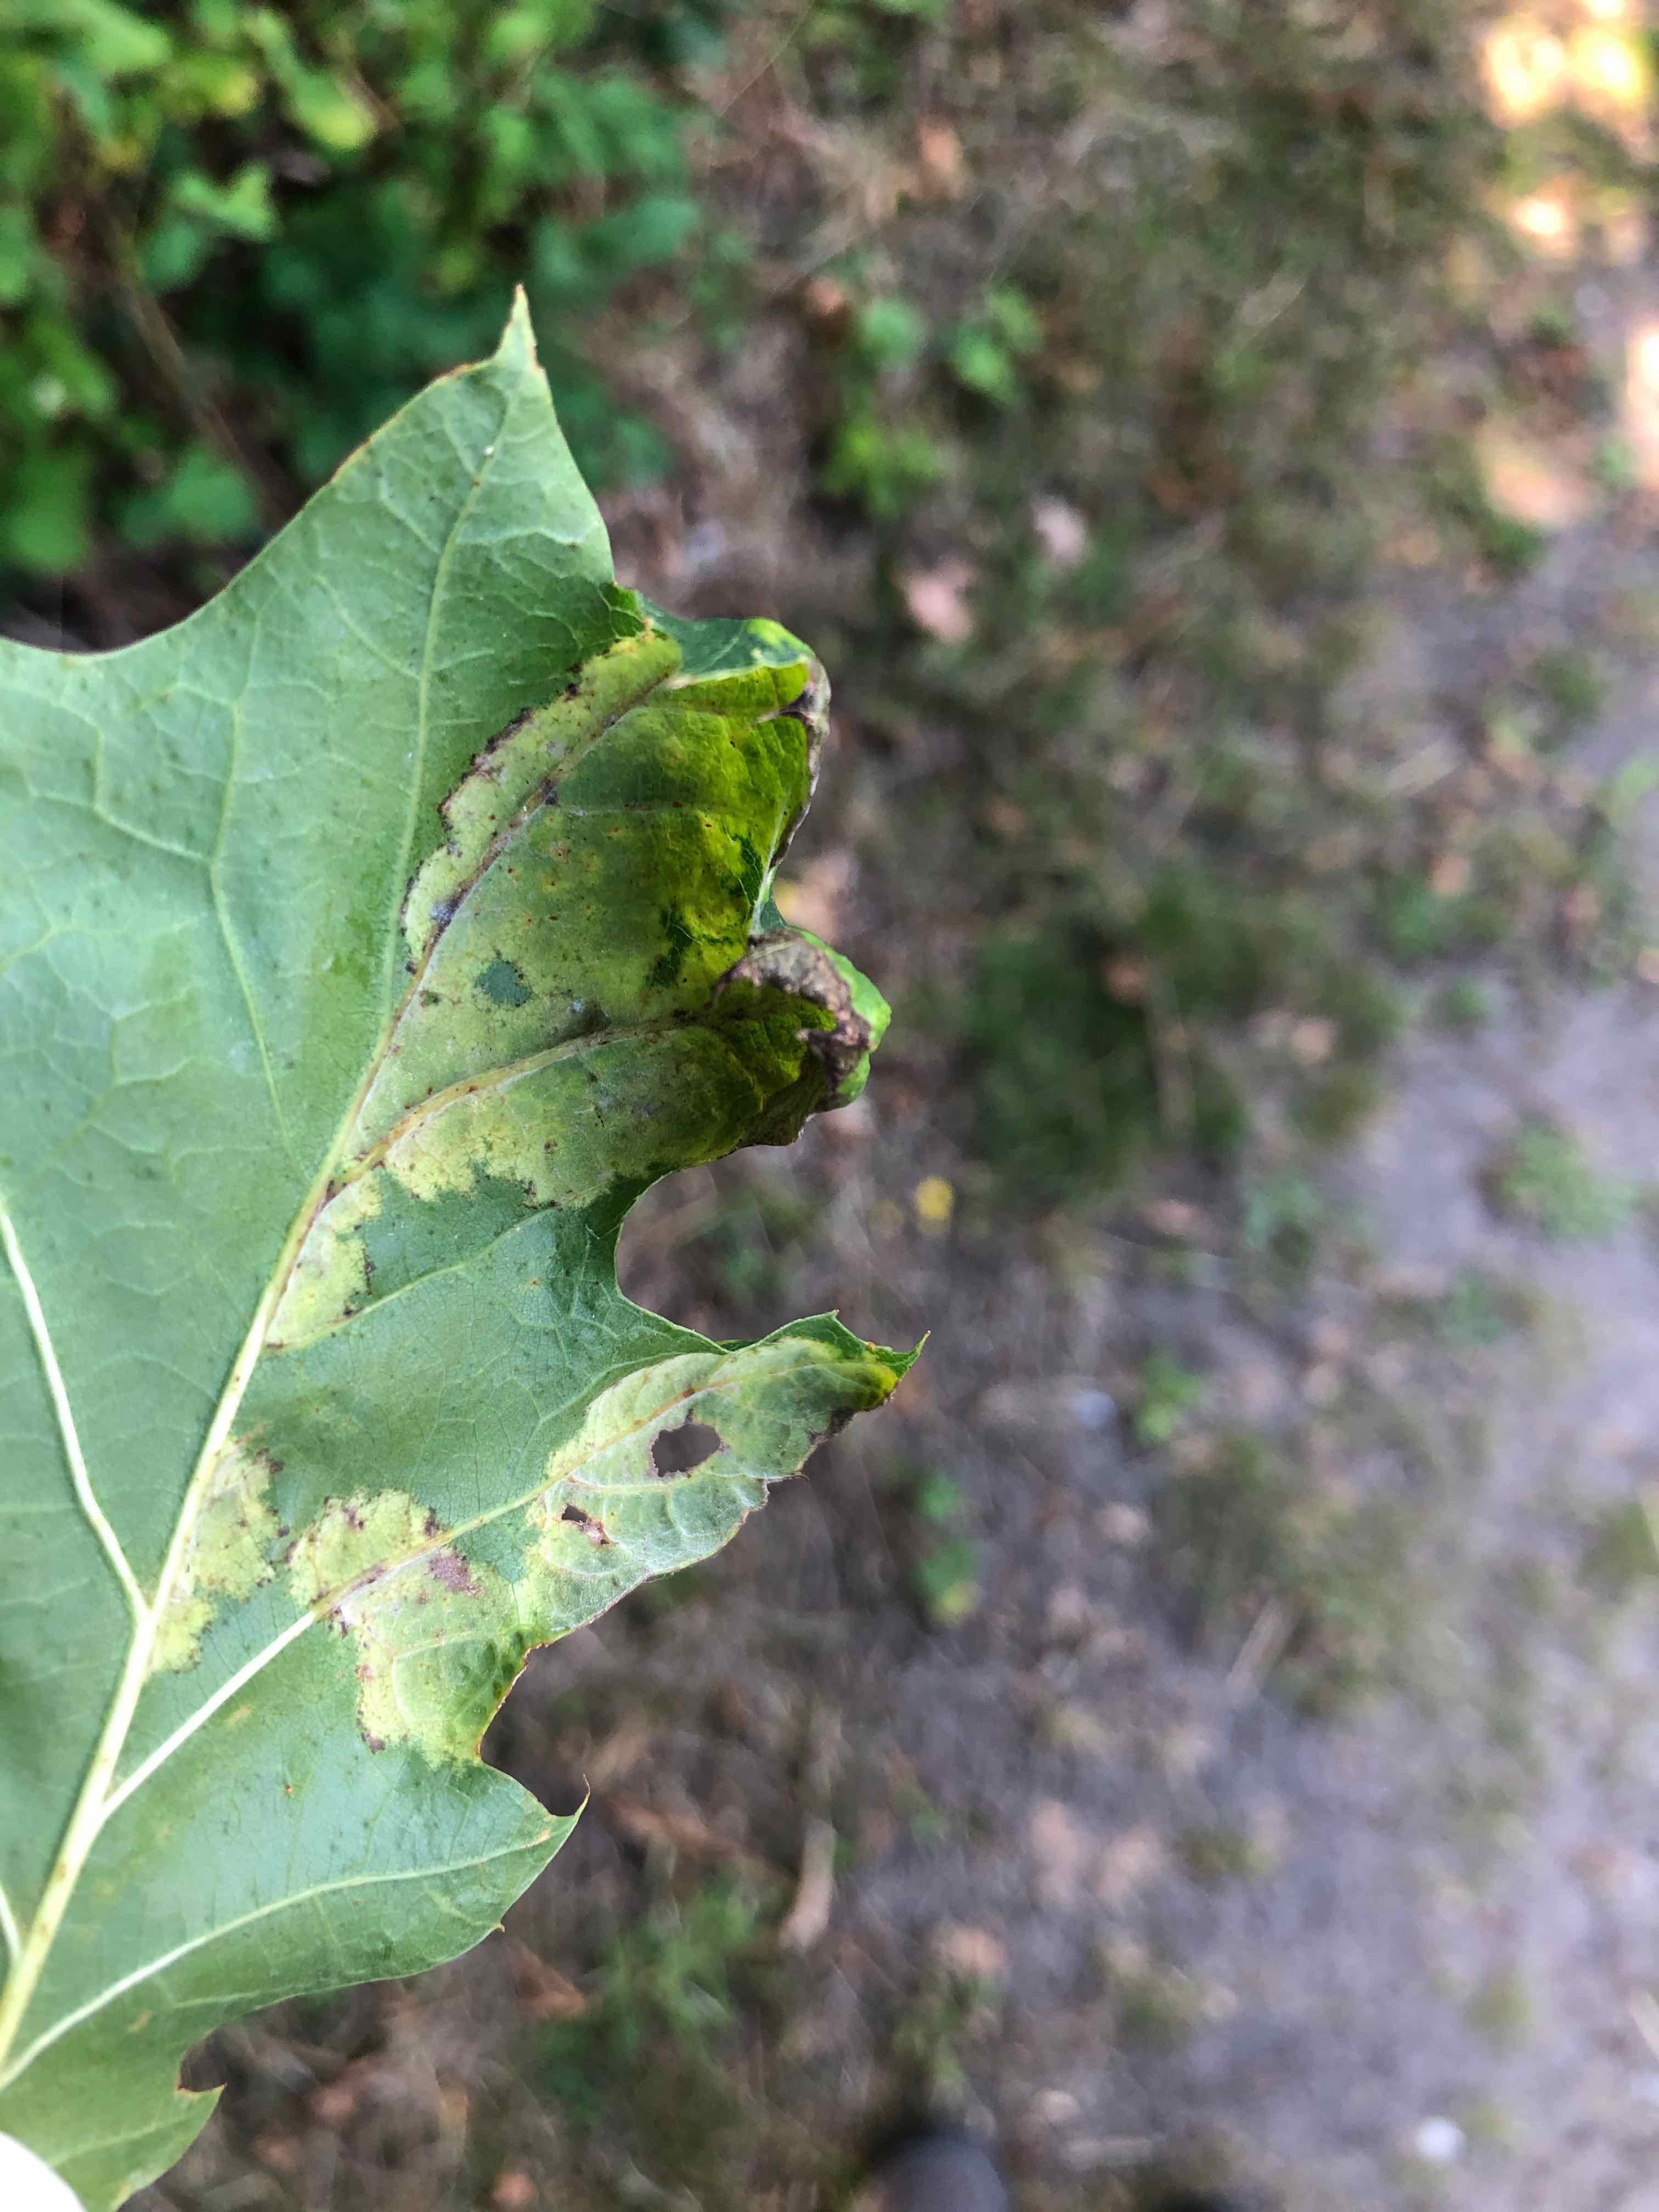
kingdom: Fungi
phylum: Ascomycota
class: Taphrinomycetes
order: Taphrinales
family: Taphrinaceae
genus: Taphrina
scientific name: Taphrina caerulescens
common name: Oak leaf blister
